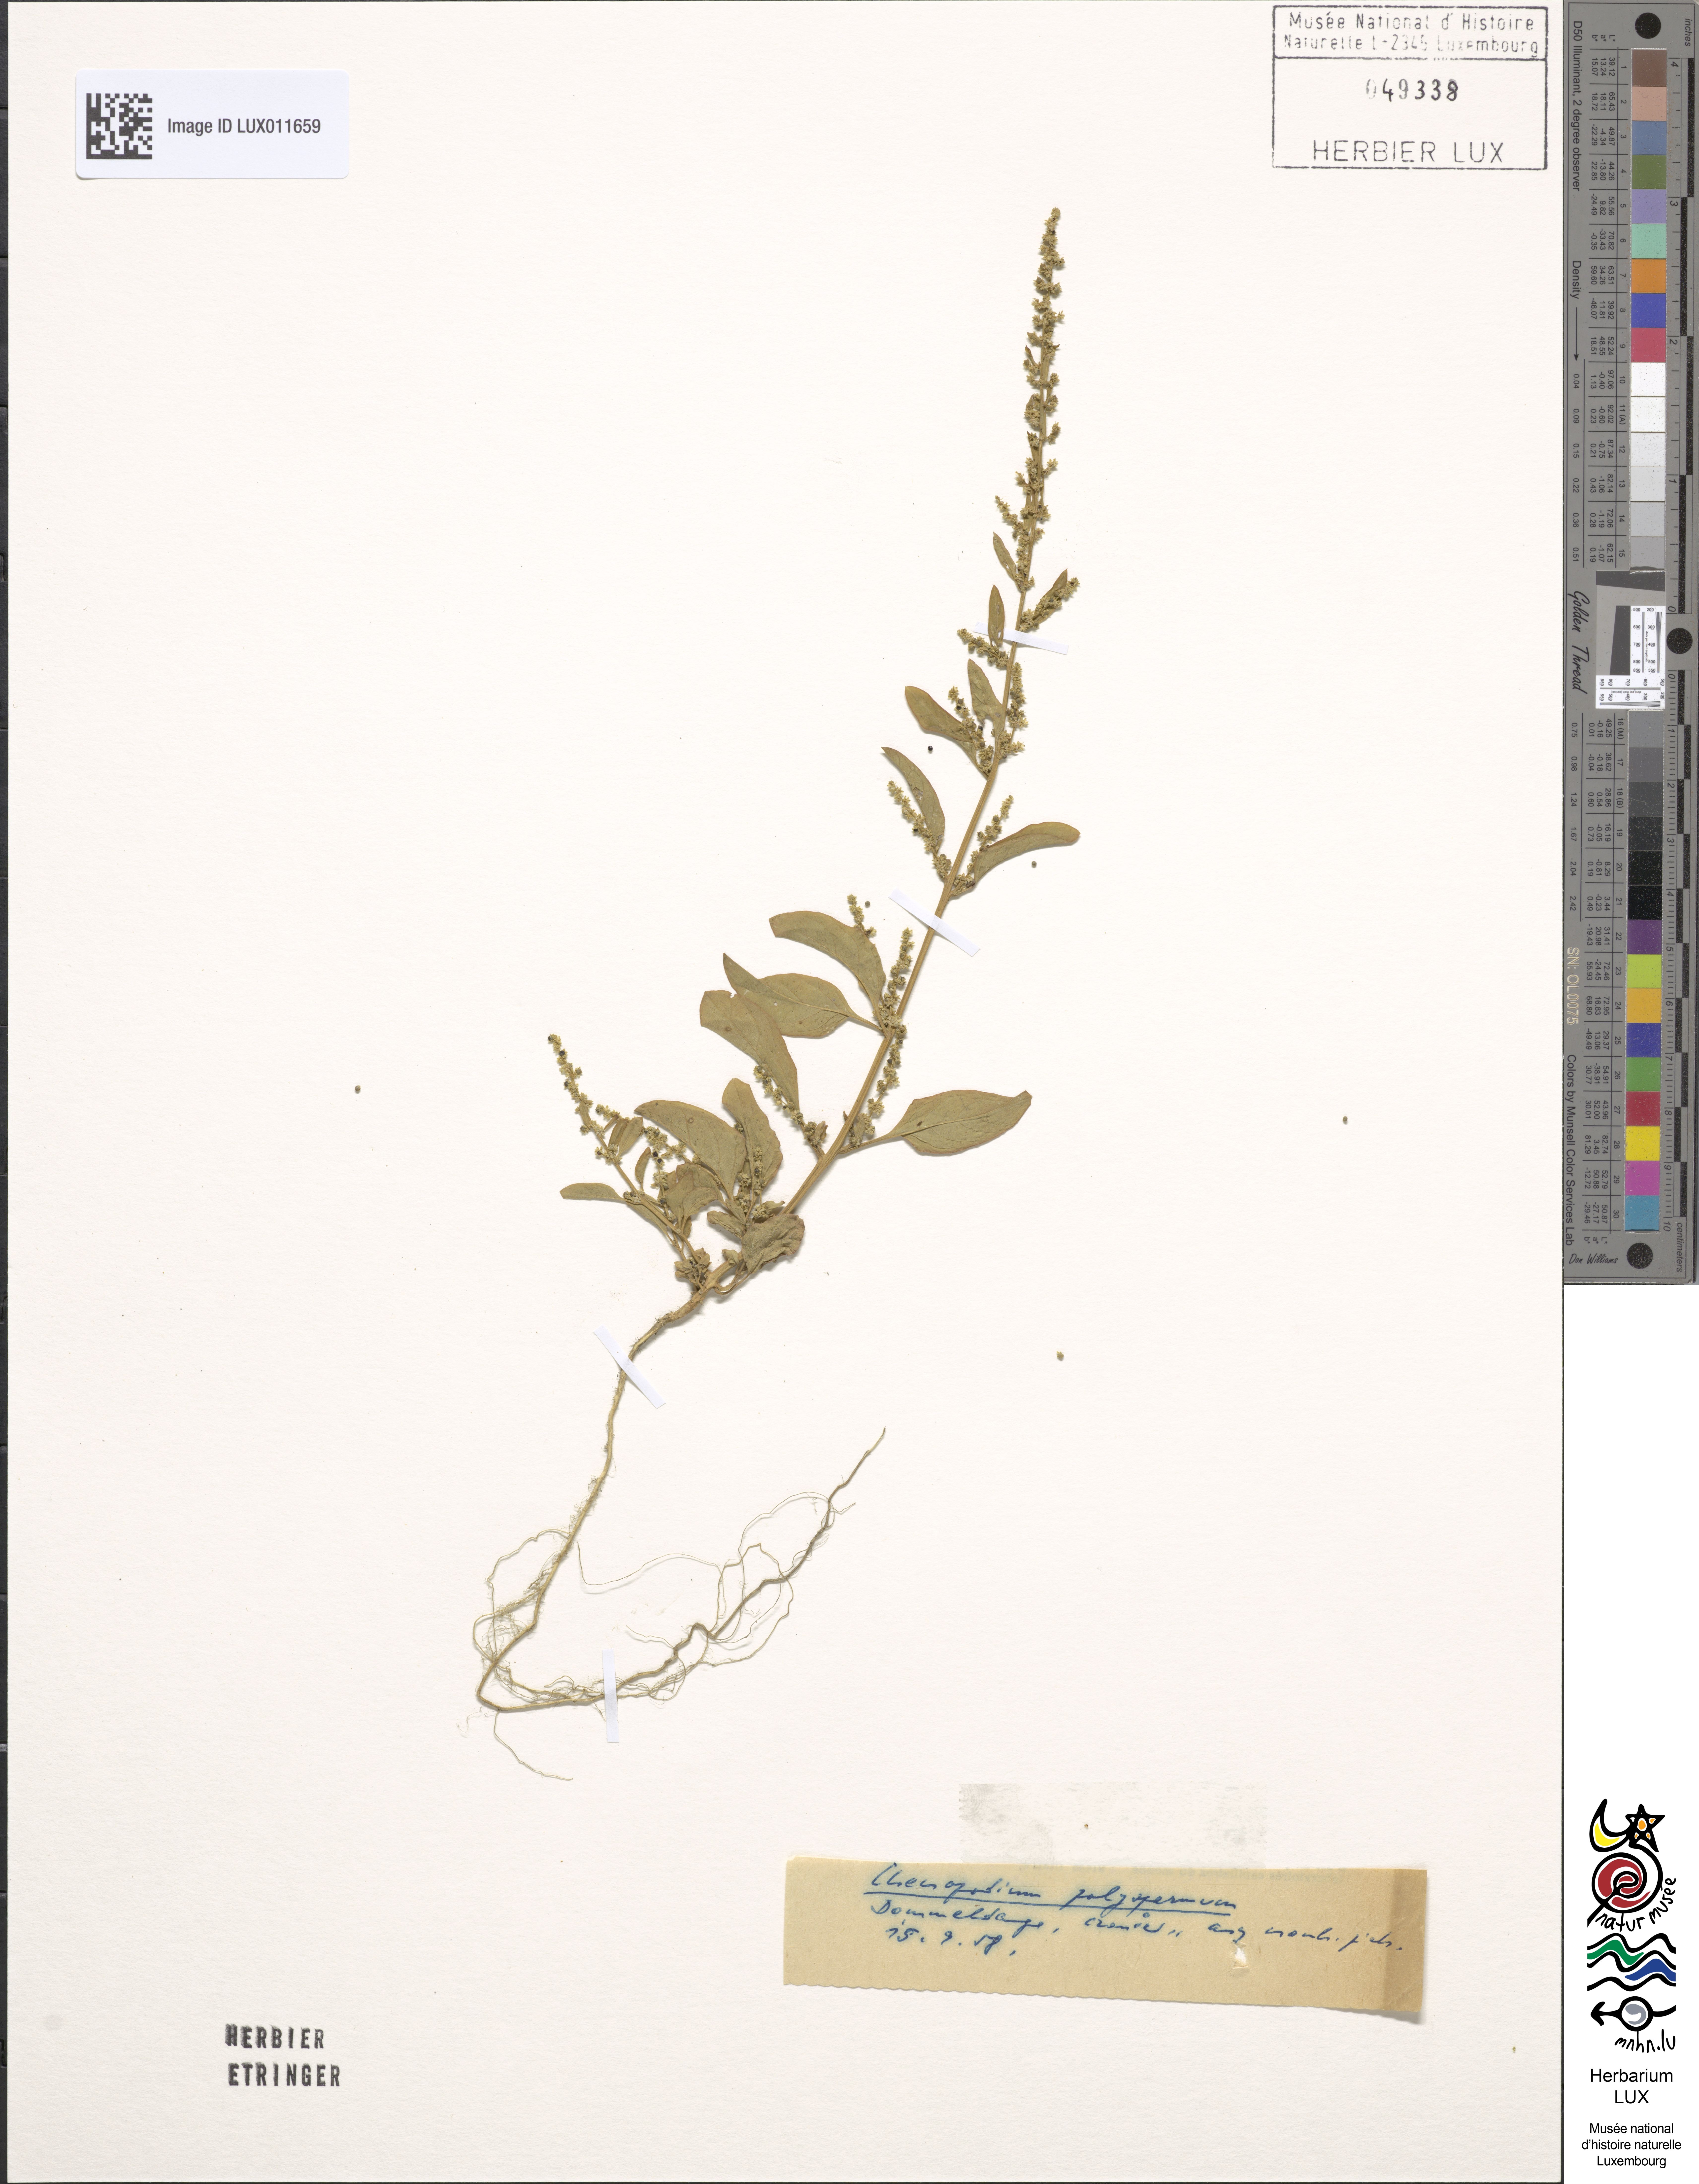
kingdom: Plantae
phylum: Tracheophyta
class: Magnoliopsida
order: Caryophyllales
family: Amaranthaceae
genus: Lipandra
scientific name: Lipandra polysperma
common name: Many-seed goosefoot
